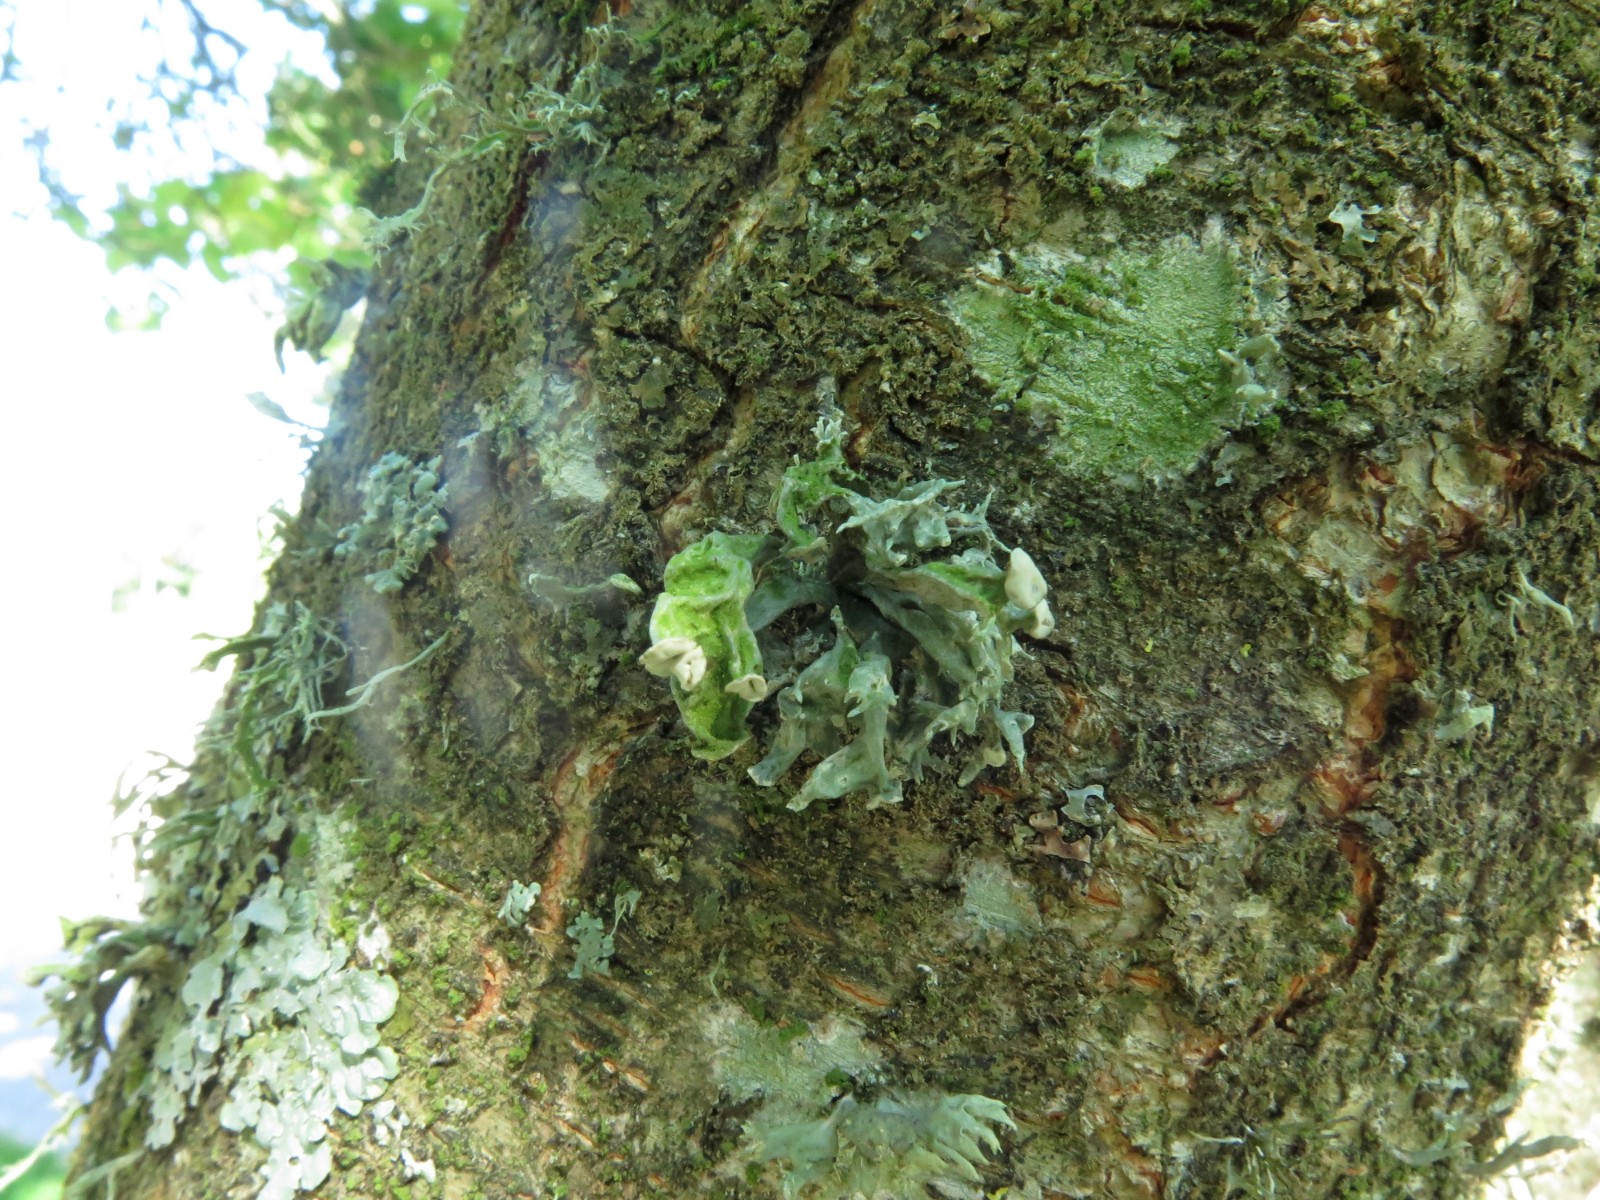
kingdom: Fungi
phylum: Ascomycota
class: Lecanoromycetes
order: Lecanorales
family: Ramalinaceae
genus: Ramalina
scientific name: Ramalina fastigiata
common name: tue-grenlav
